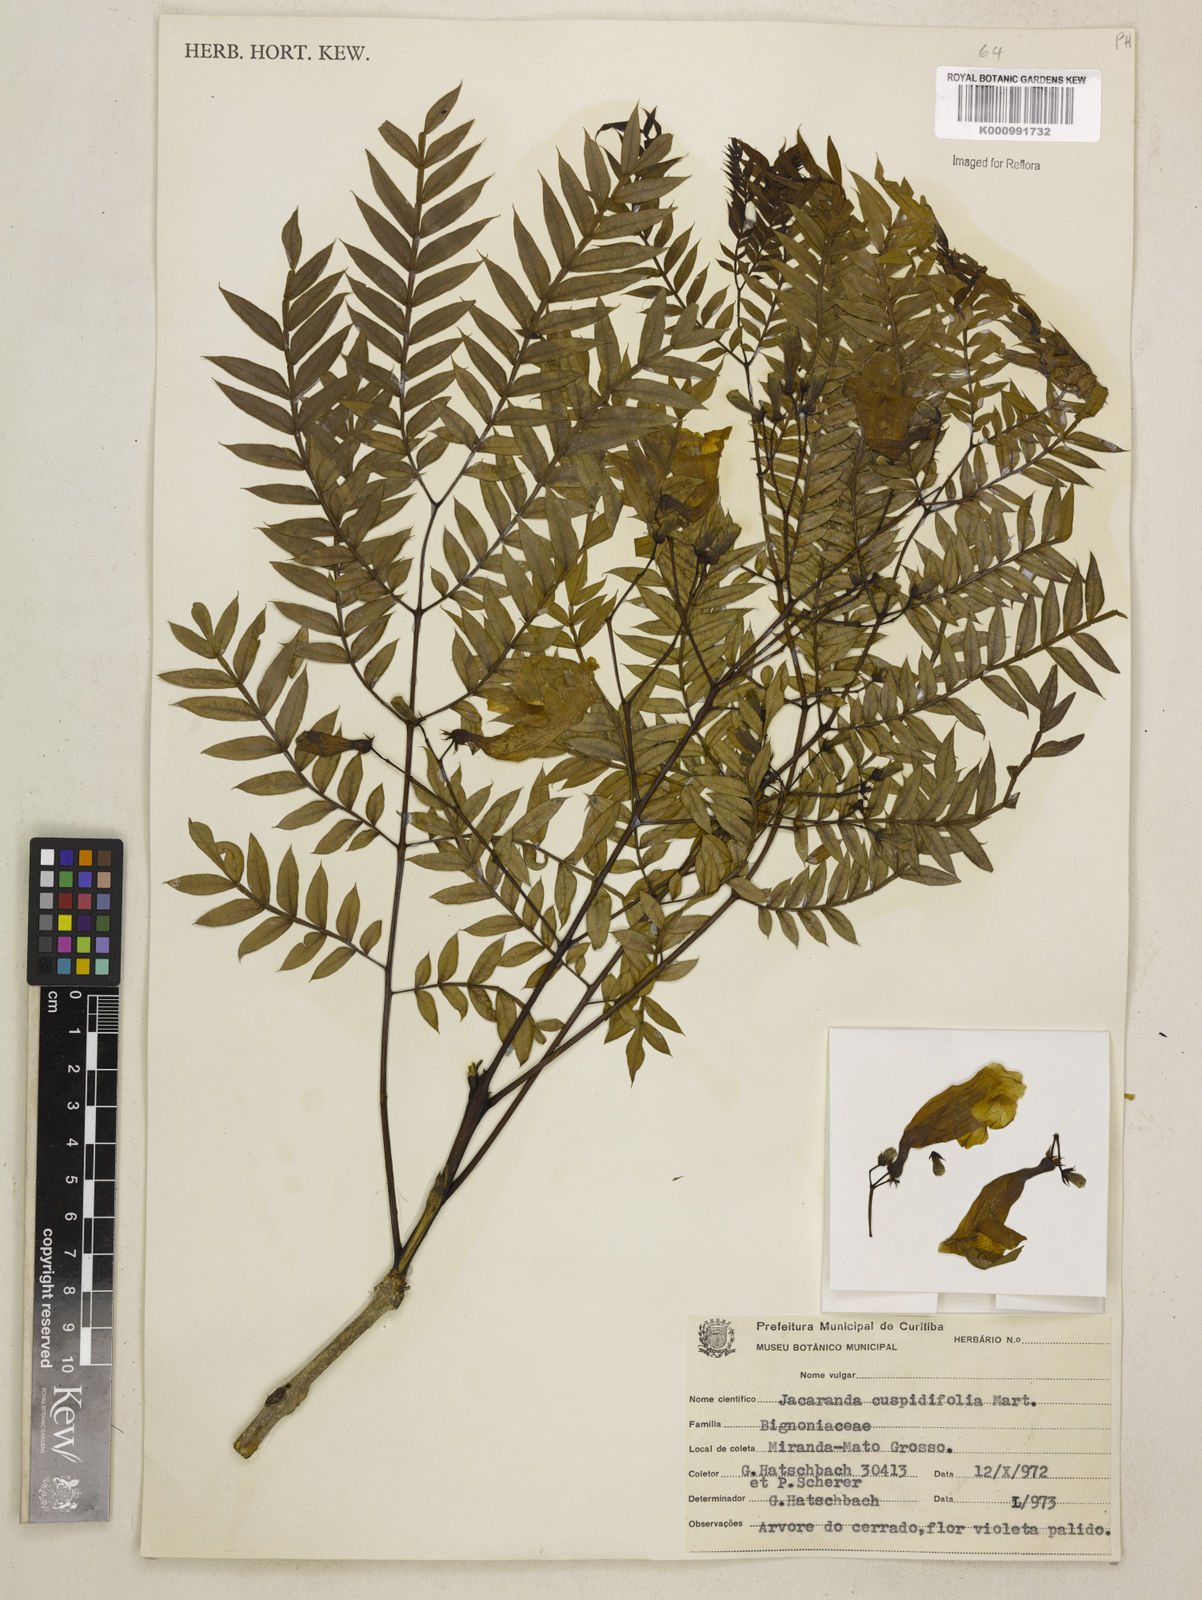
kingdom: Plantae
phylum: Tracheophyta
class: Magnoliopsida
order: Lamiales
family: Bignoniaceae
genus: Jacaranda
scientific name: Jacaranda cuspidifolia
